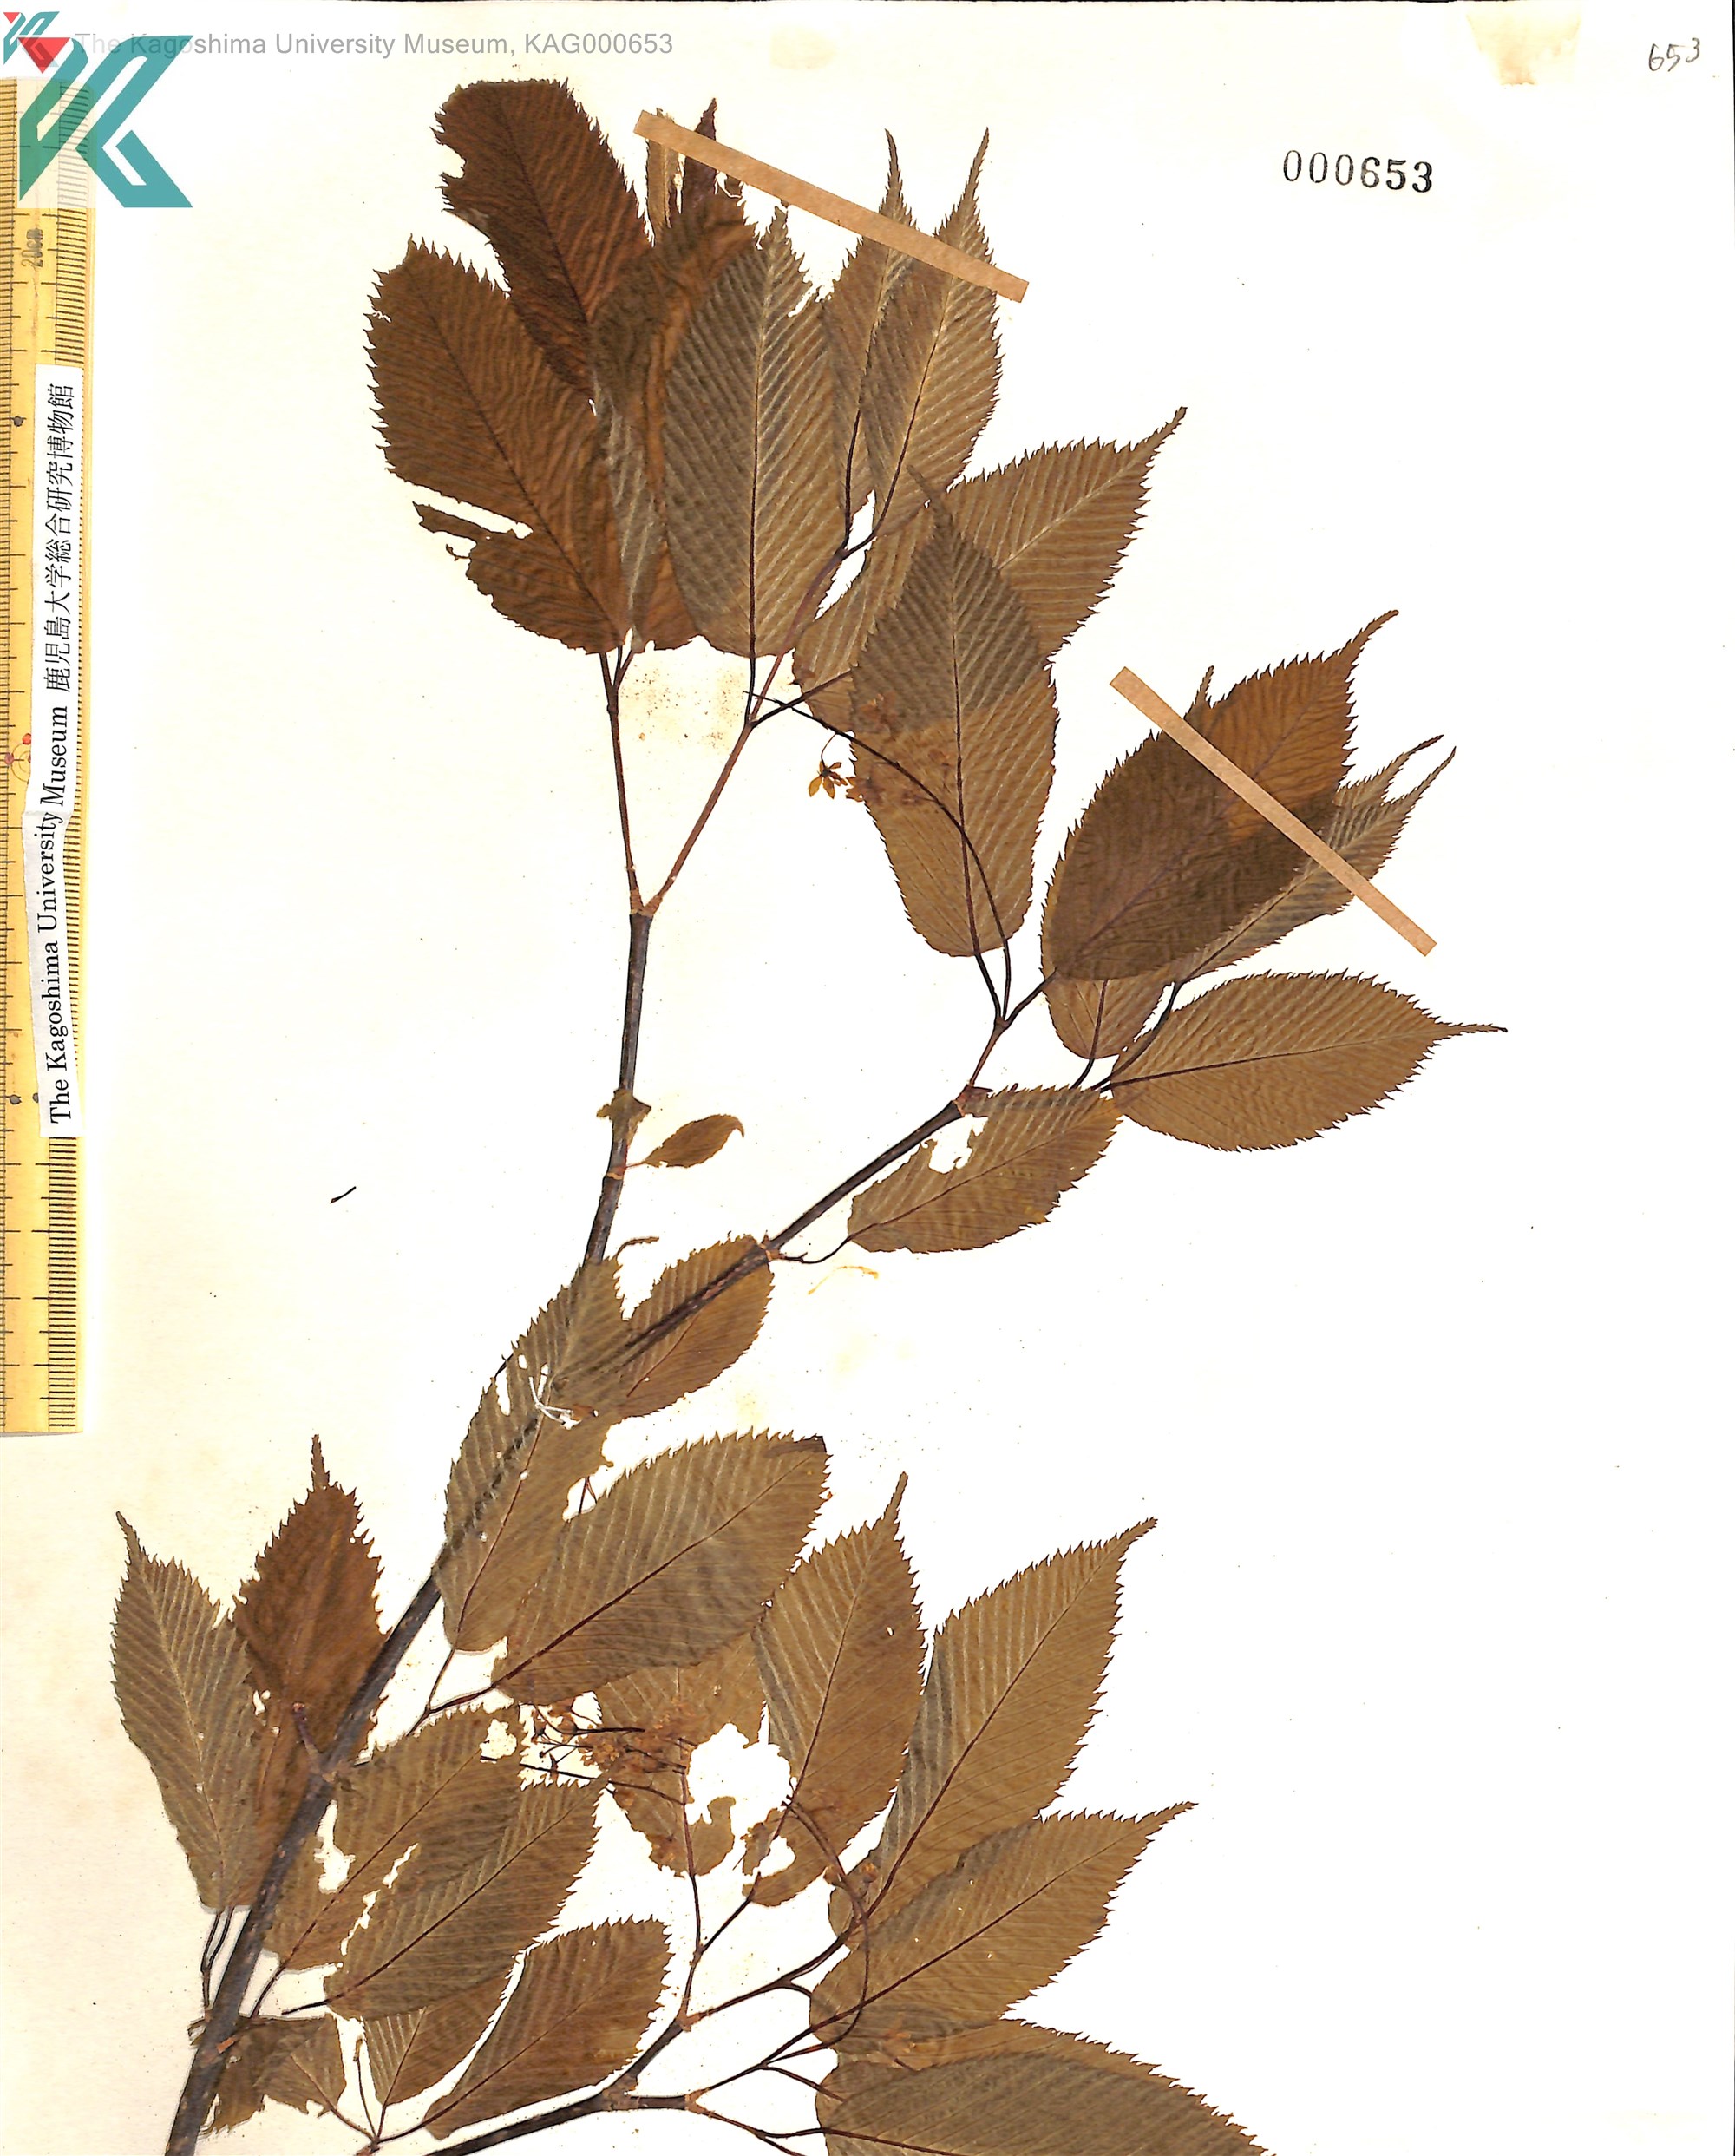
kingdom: Plantae
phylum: Tracheophyta
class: Magnoliopsida
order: Sapindales
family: Sapindaceae
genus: Acer
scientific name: Acer carpinifolium
